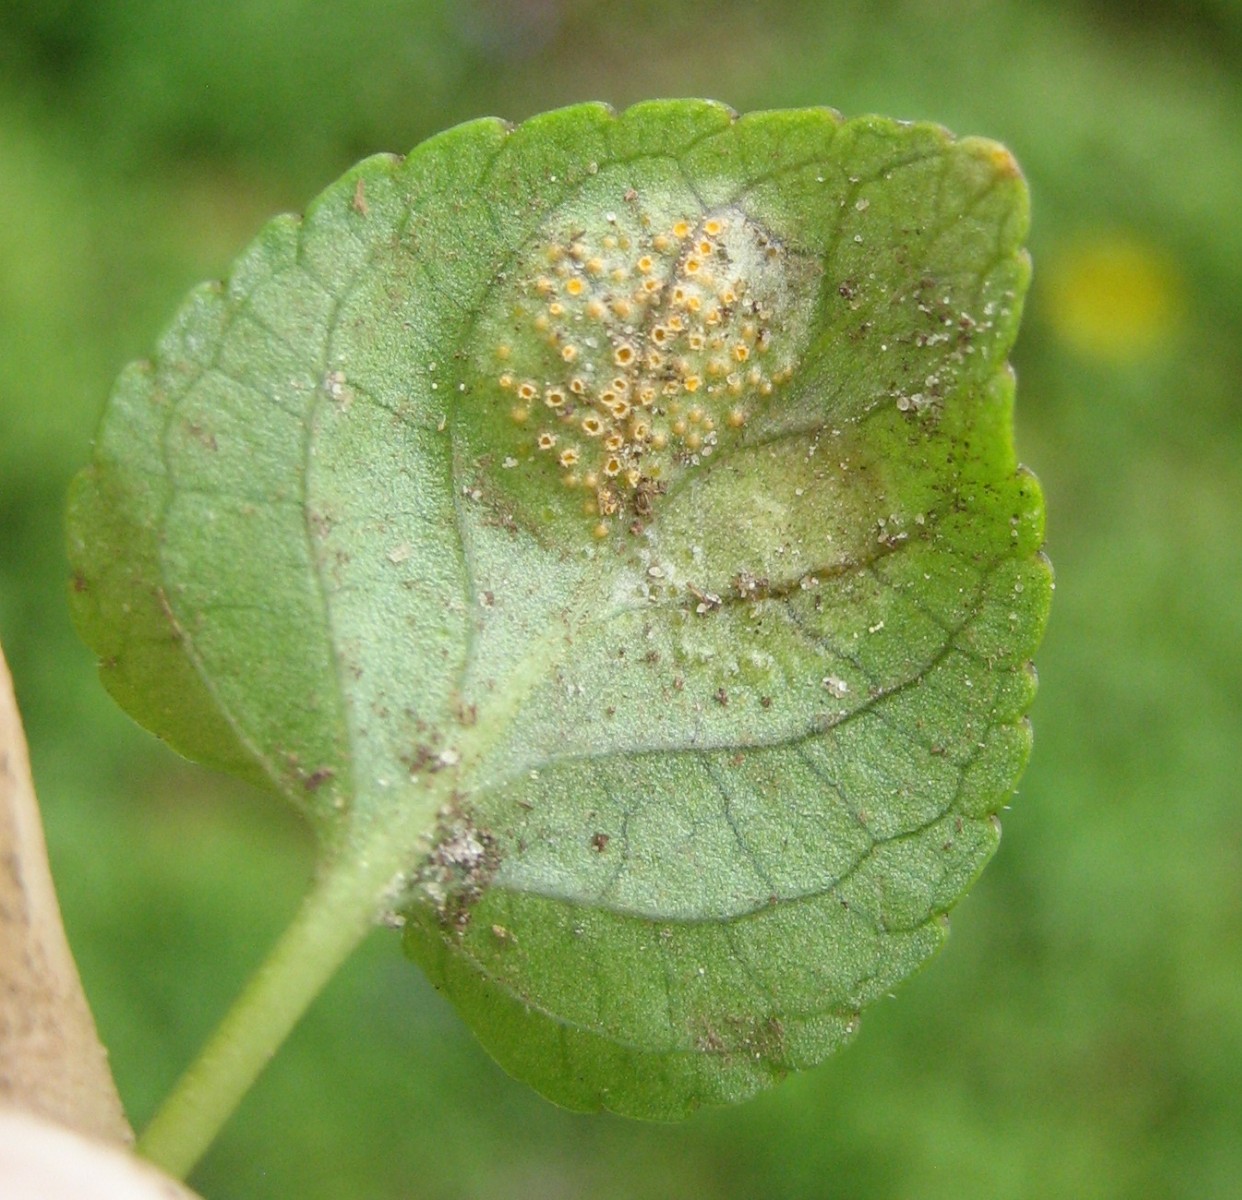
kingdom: Fungi
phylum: Basidiomycota
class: Pucciniomycetes
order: Pucciniales
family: Pucciniaceae
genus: Puccinia
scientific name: Puccinia violae
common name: viol-tvecellerust
